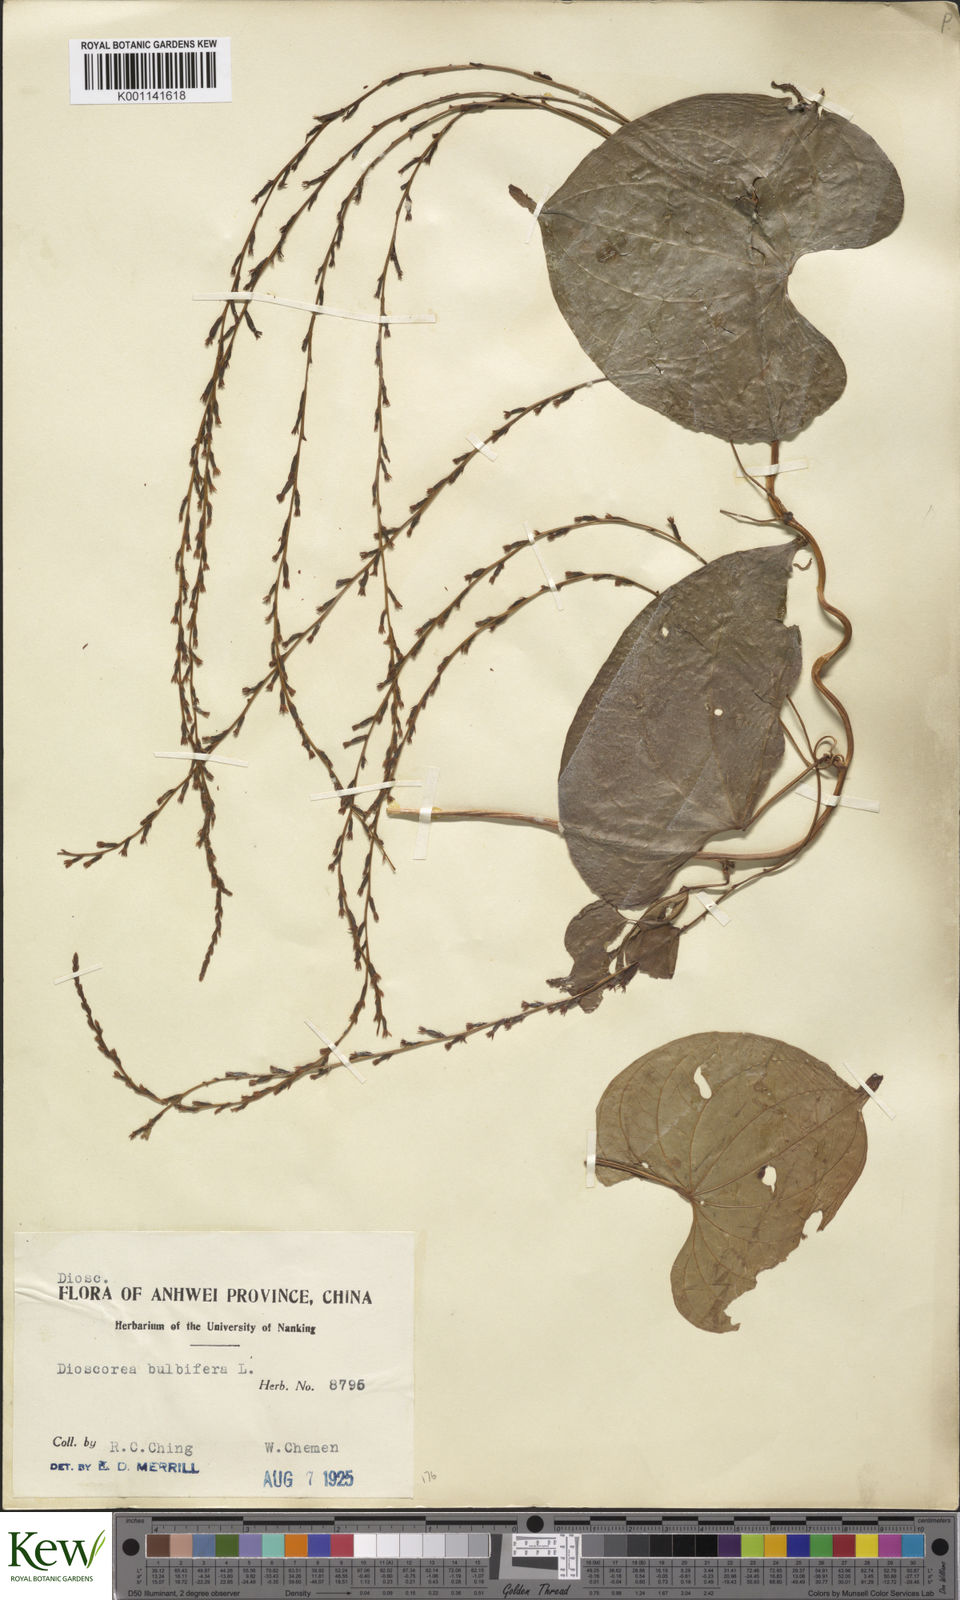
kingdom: Plantae
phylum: Tracheophyta
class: Liliopsida
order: Dioscoreales
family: Dioscoreaceae
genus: Dioscorea
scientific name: Dioscorea bulbifera
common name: Air yam
